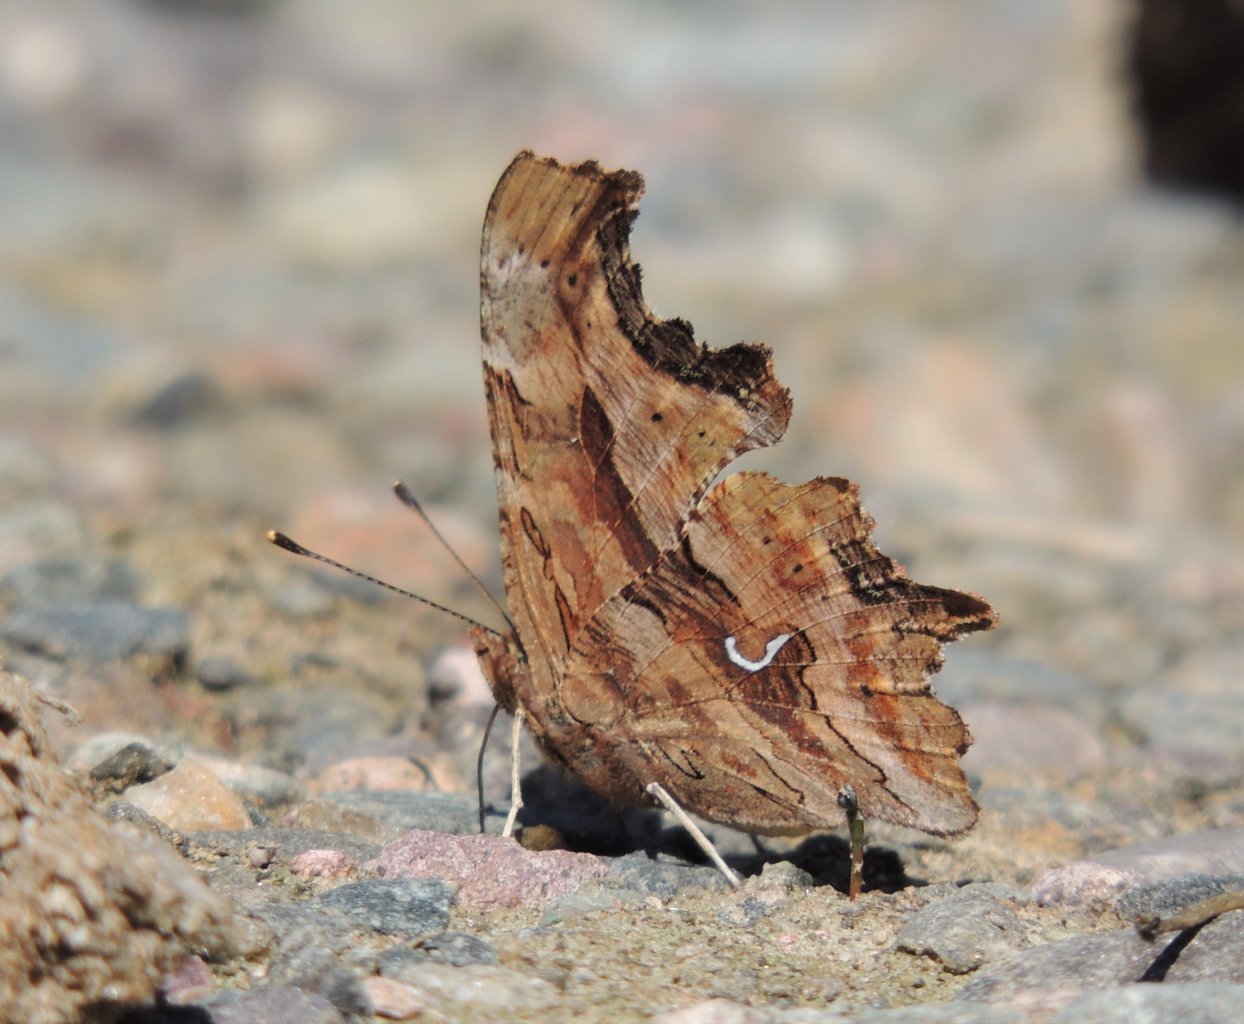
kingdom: Animalia
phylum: Arthropoda
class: Insecta
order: Lepidoptera
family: Nymphalidae
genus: Polygonia
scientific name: Polygonia satyrus
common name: Satyr Comma
